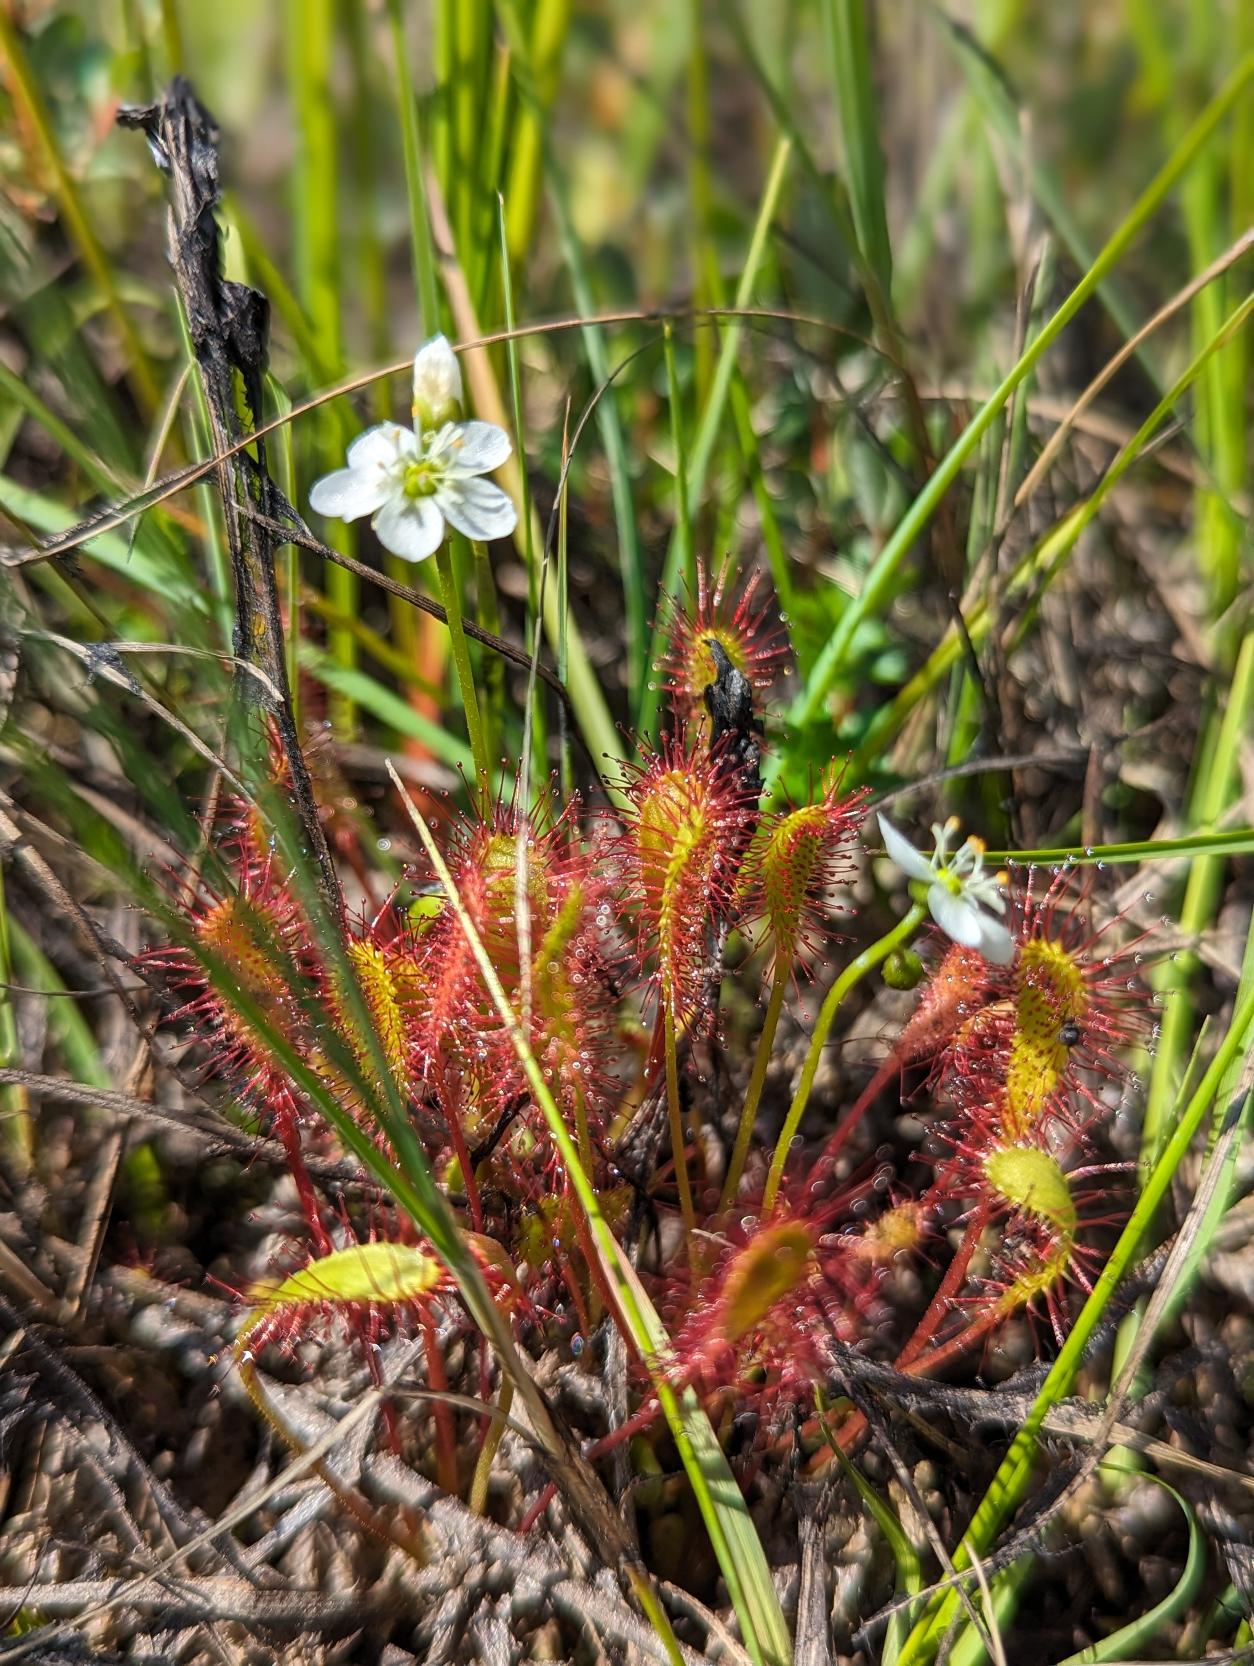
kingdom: Plantae
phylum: Tracheophyta
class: Magnoliopsida
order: Caryophyllales
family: Droseraceae
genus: Drosera
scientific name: Drosera anglica
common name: Langbladet soldug
